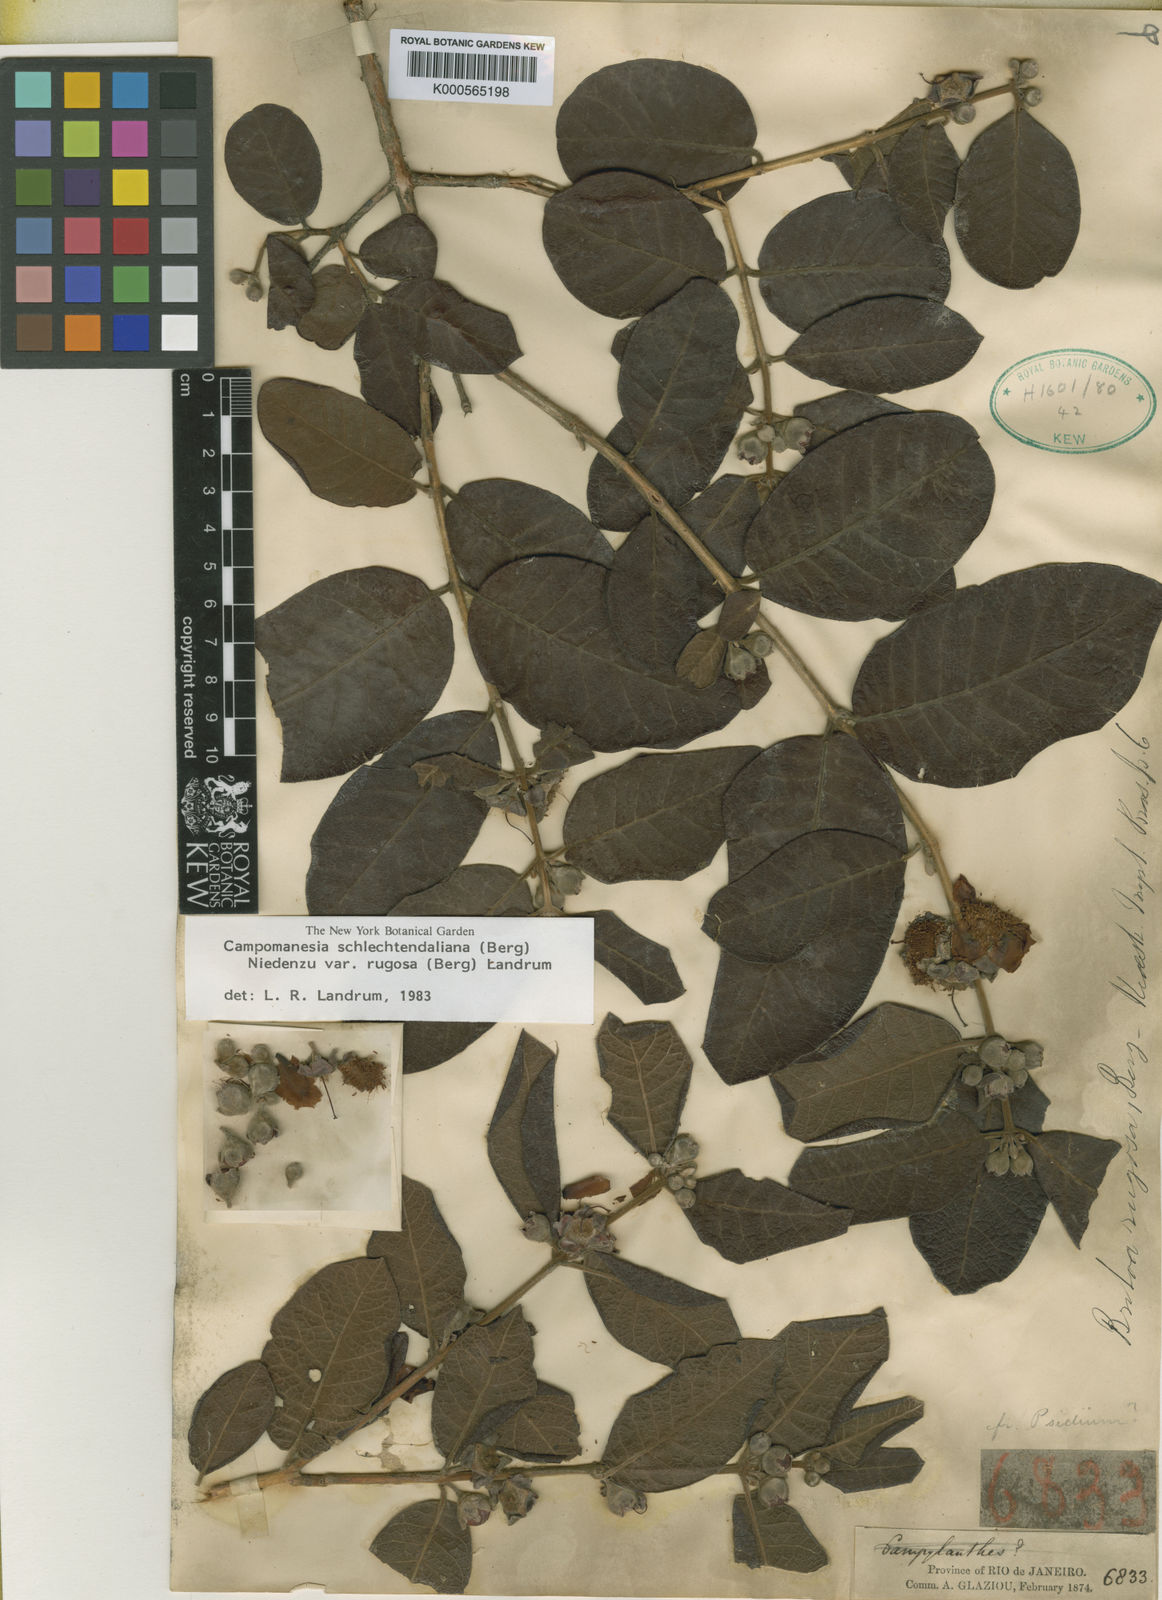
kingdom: Plantae
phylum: Tracheophyta
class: Magnoliopsida
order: Myrtales
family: Myrtaceae
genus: Campomanesia
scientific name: Campomanesia schlechtendaliana
